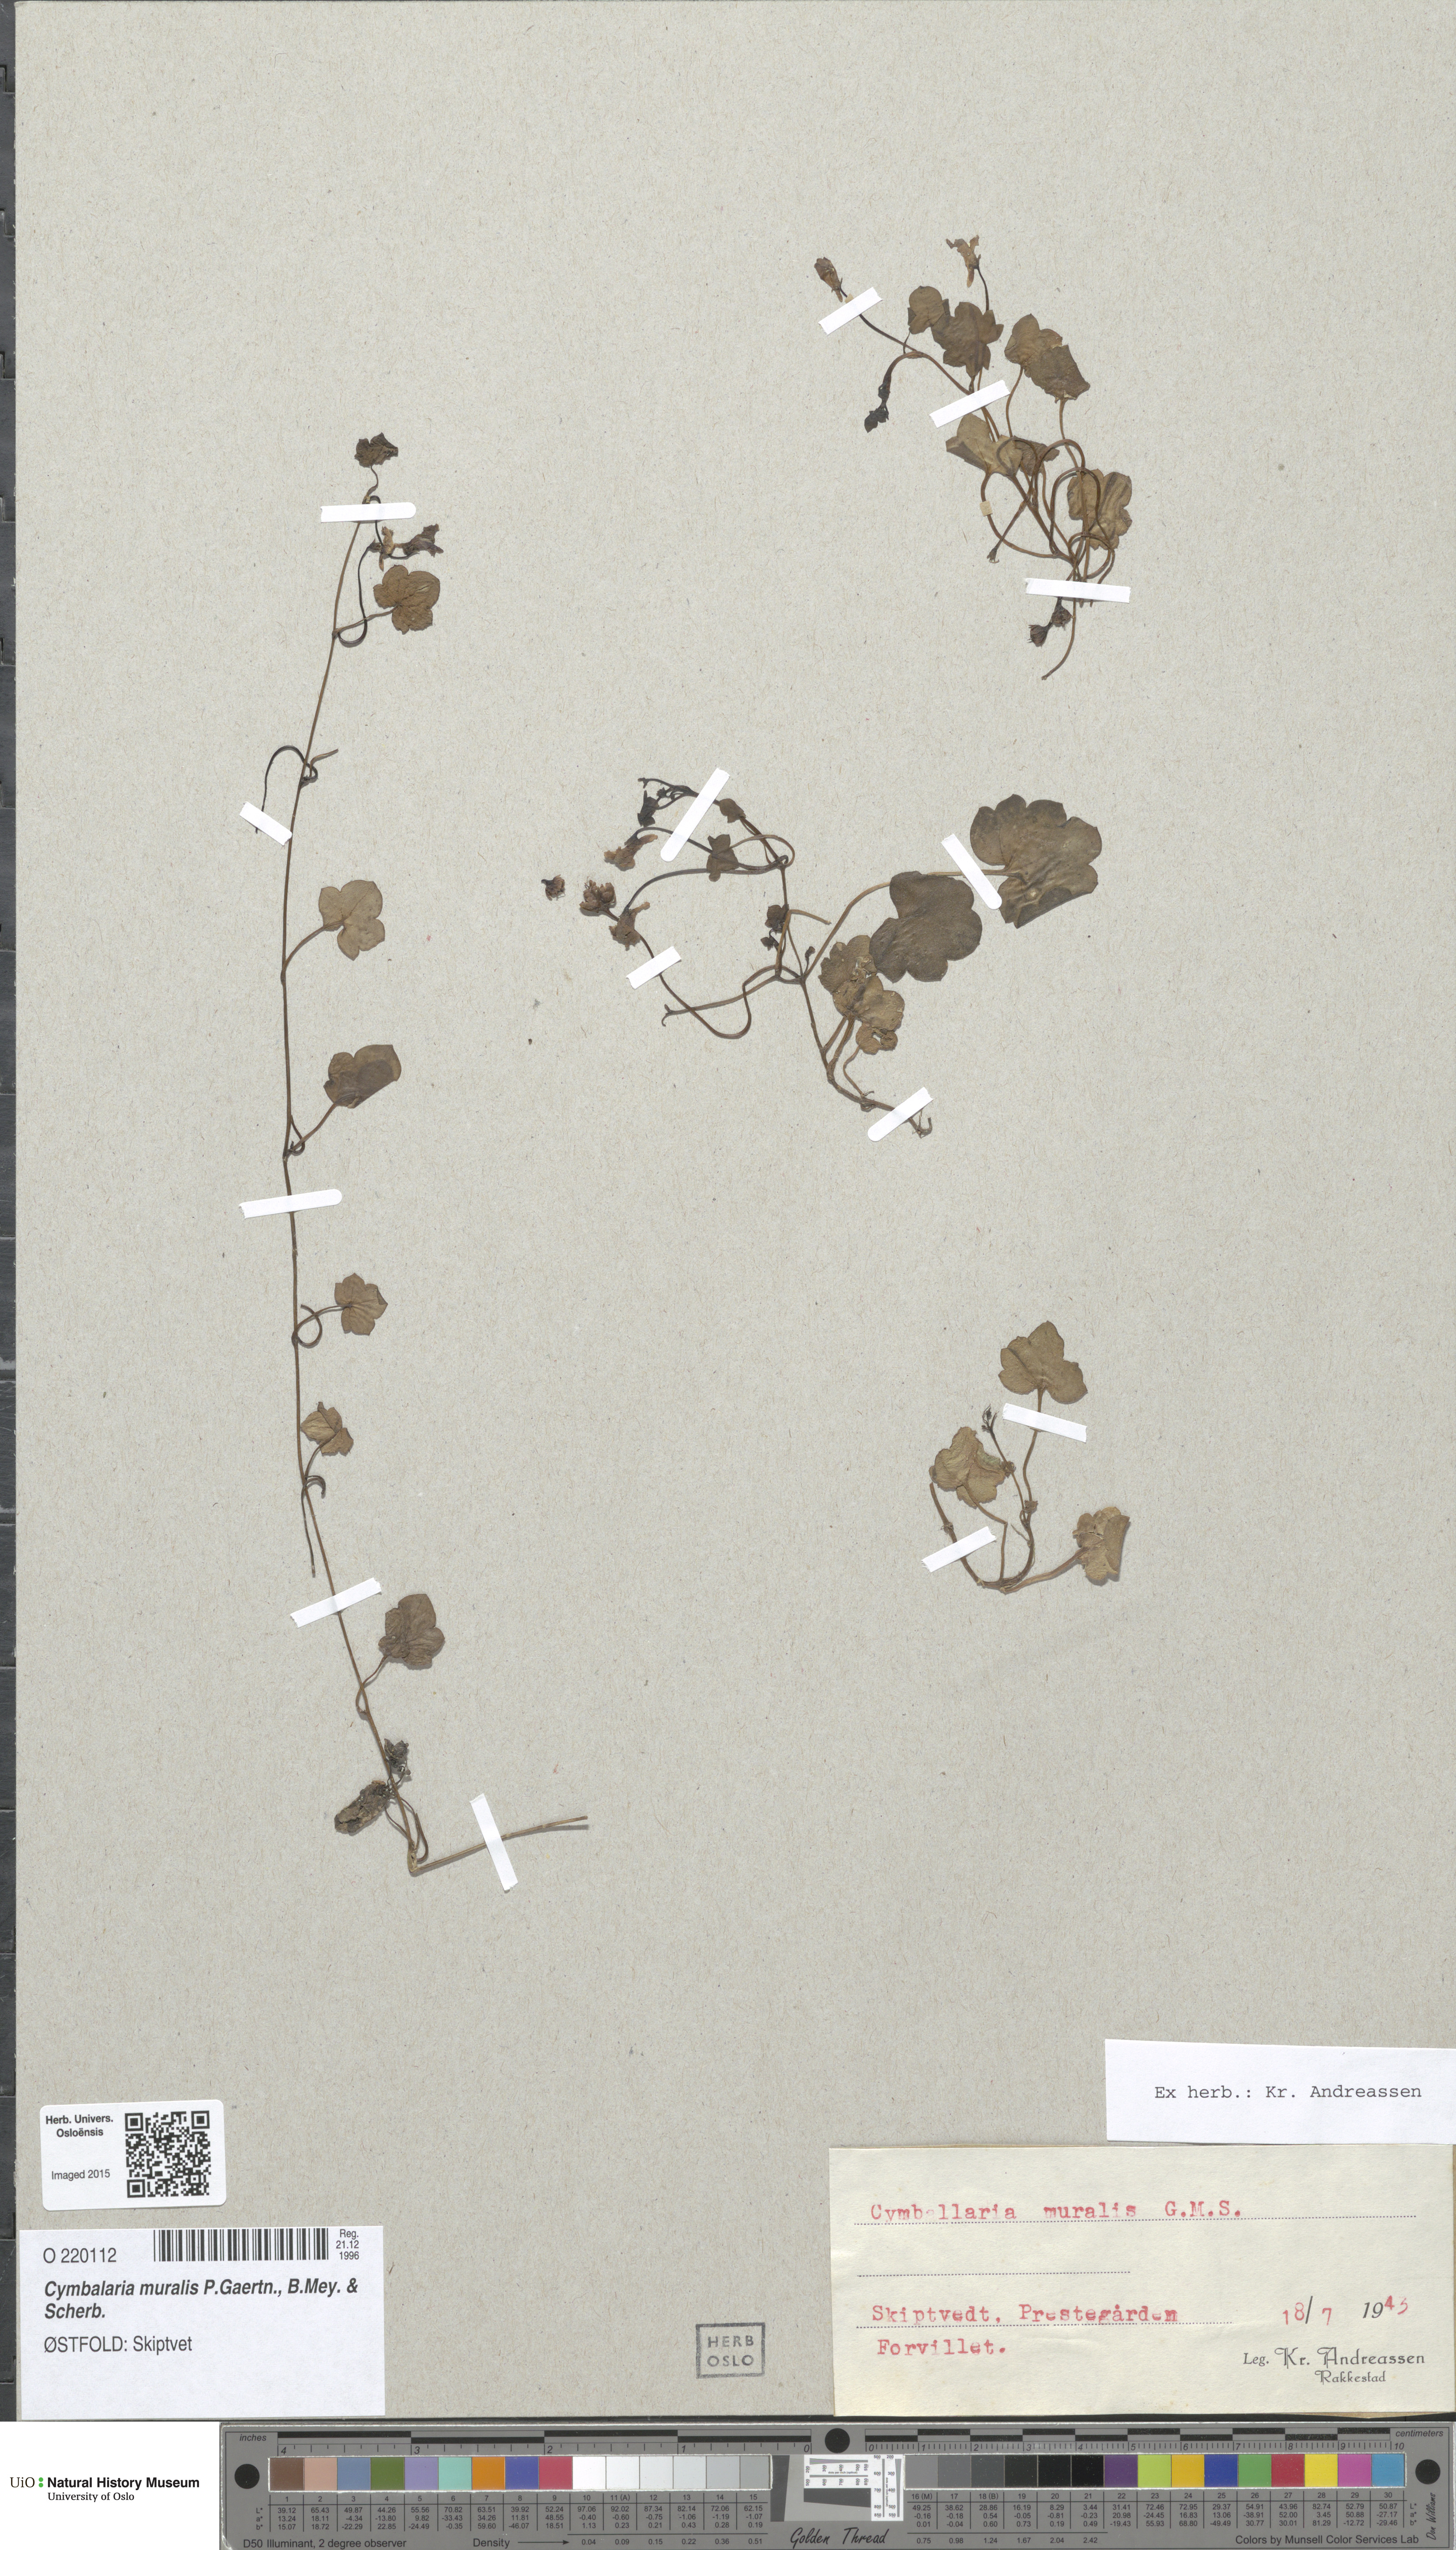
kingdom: Plantae
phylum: Tracheophyta
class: Magnoliopsida
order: Lamiales
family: Plantaginaceae
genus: Cymbalaria
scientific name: Cymbalaria muralis
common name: Ivy-leaved toadflax
